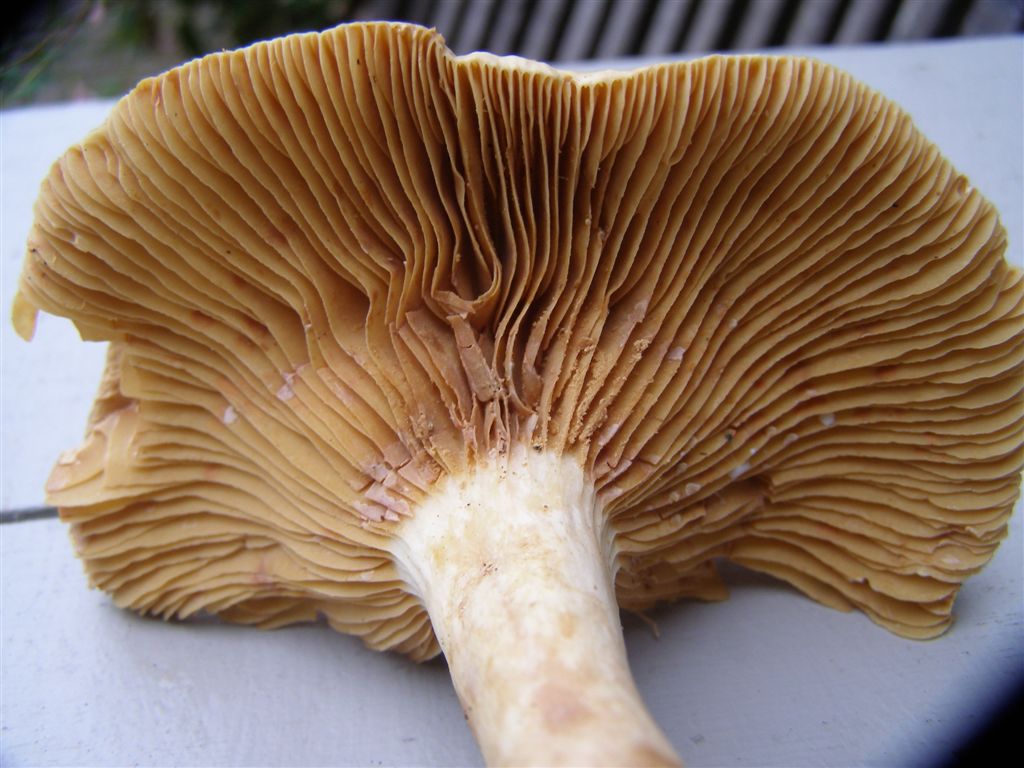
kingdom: Fungi
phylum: Basidiomycota
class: Agaricomycetes
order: Russulales
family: Russulaceae
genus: Lactarius
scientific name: Lactarius pterosporus
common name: vingesporet mælkehat
